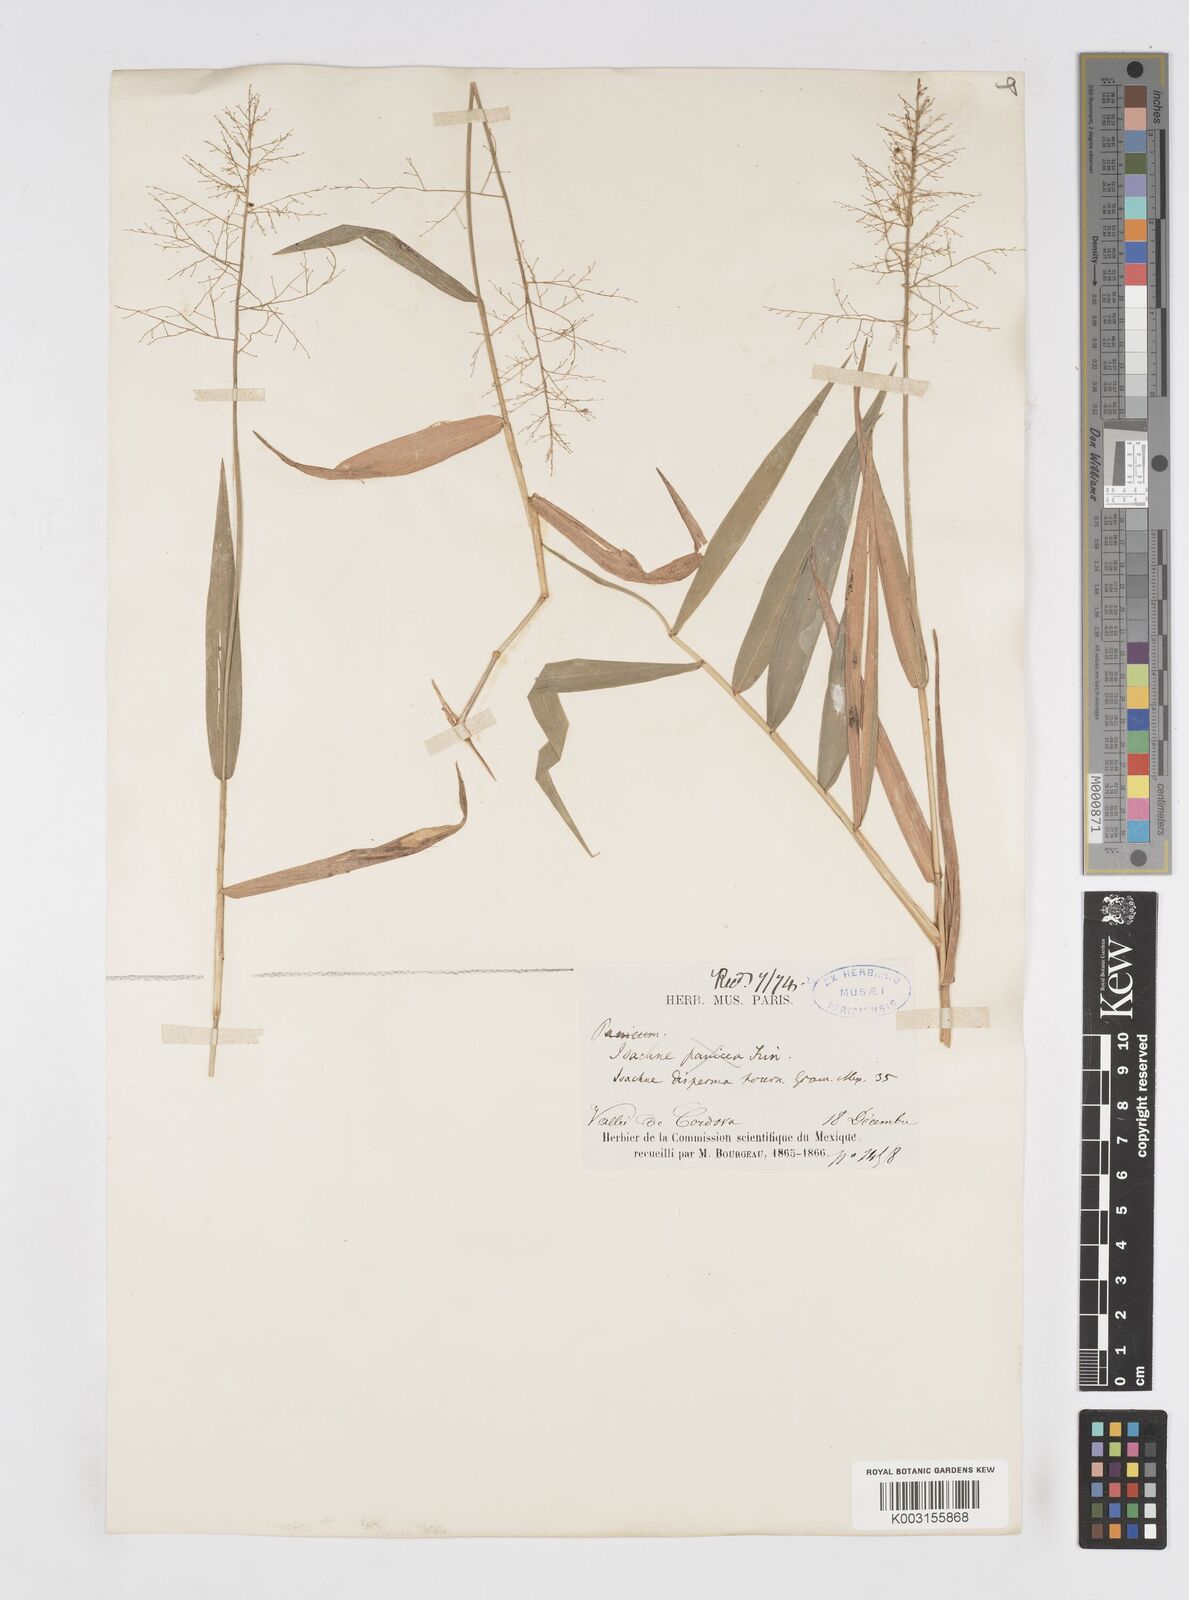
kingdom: Plantae
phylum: Tracheophyta
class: Liliopsida
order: Poales
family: Poaceae
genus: Isachne
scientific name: Isachne arundinacea
